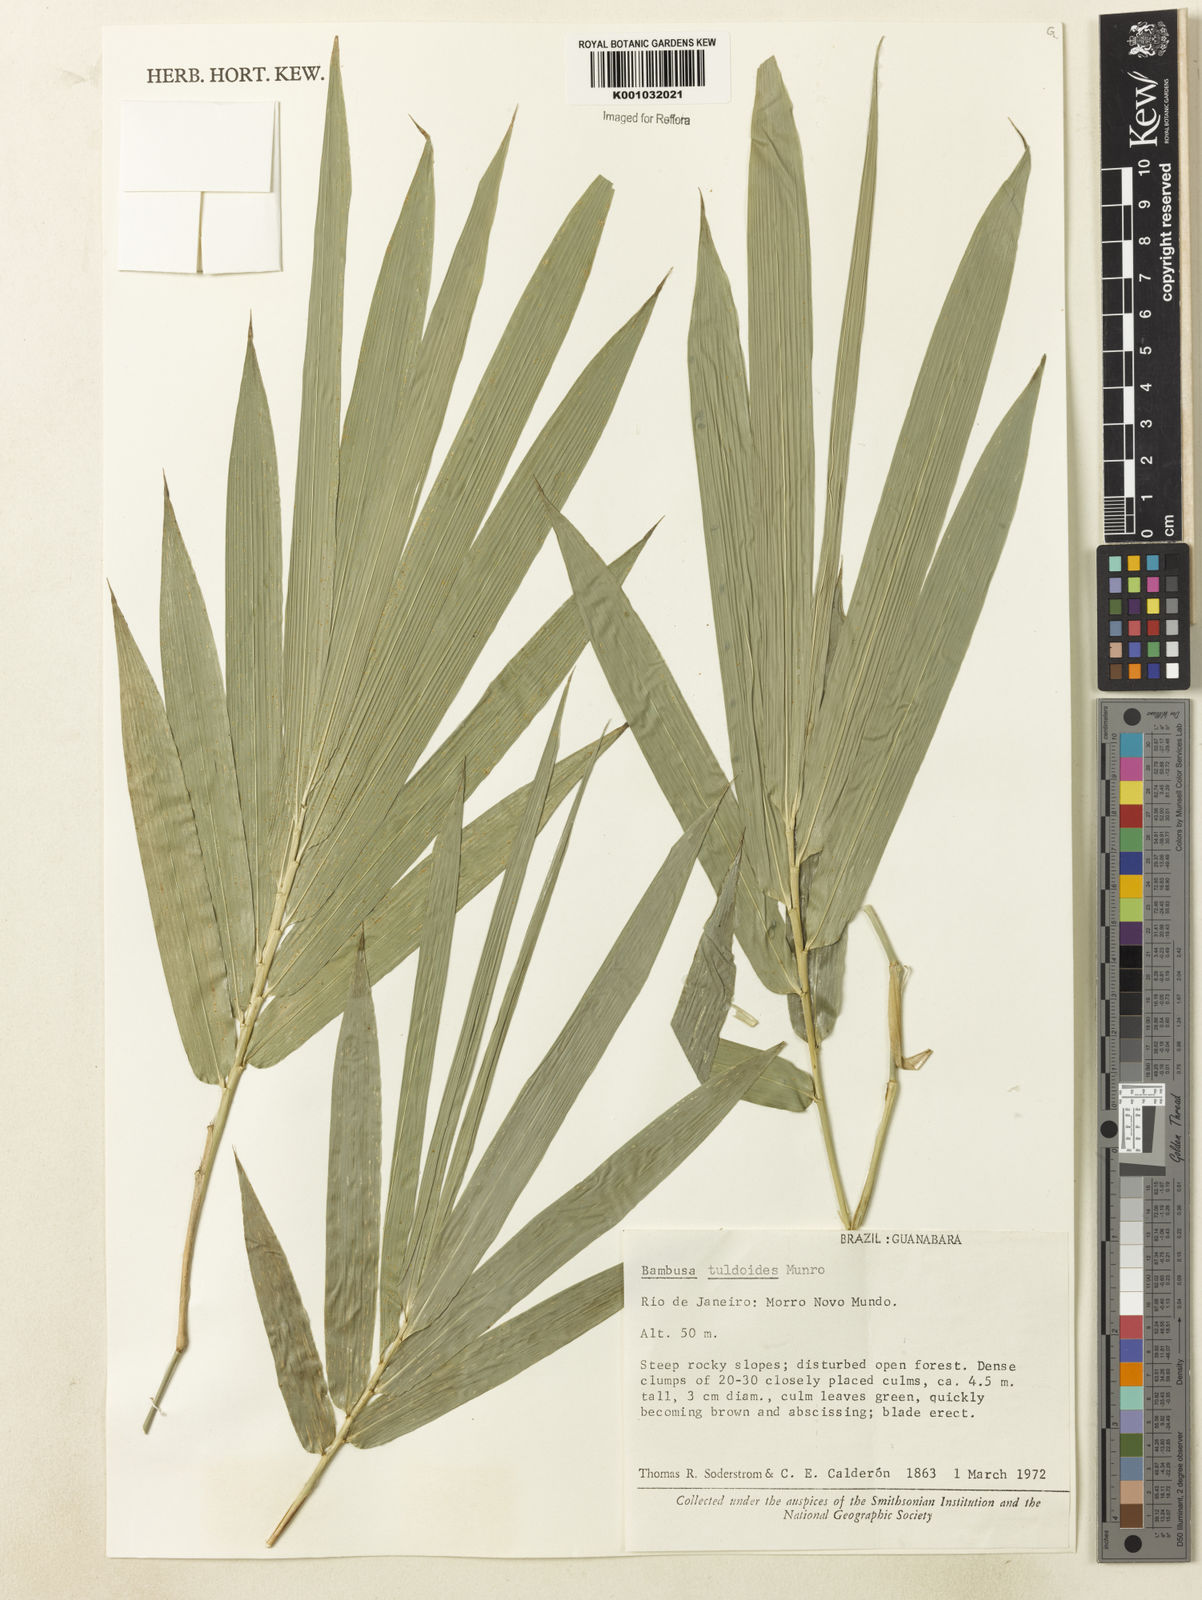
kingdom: Plantae
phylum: Tracheophyta
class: Liliopsida
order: Poales
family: Poaceae
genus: Bambusa
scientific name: Bambusa tuldoides
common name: Verdant bamboo
